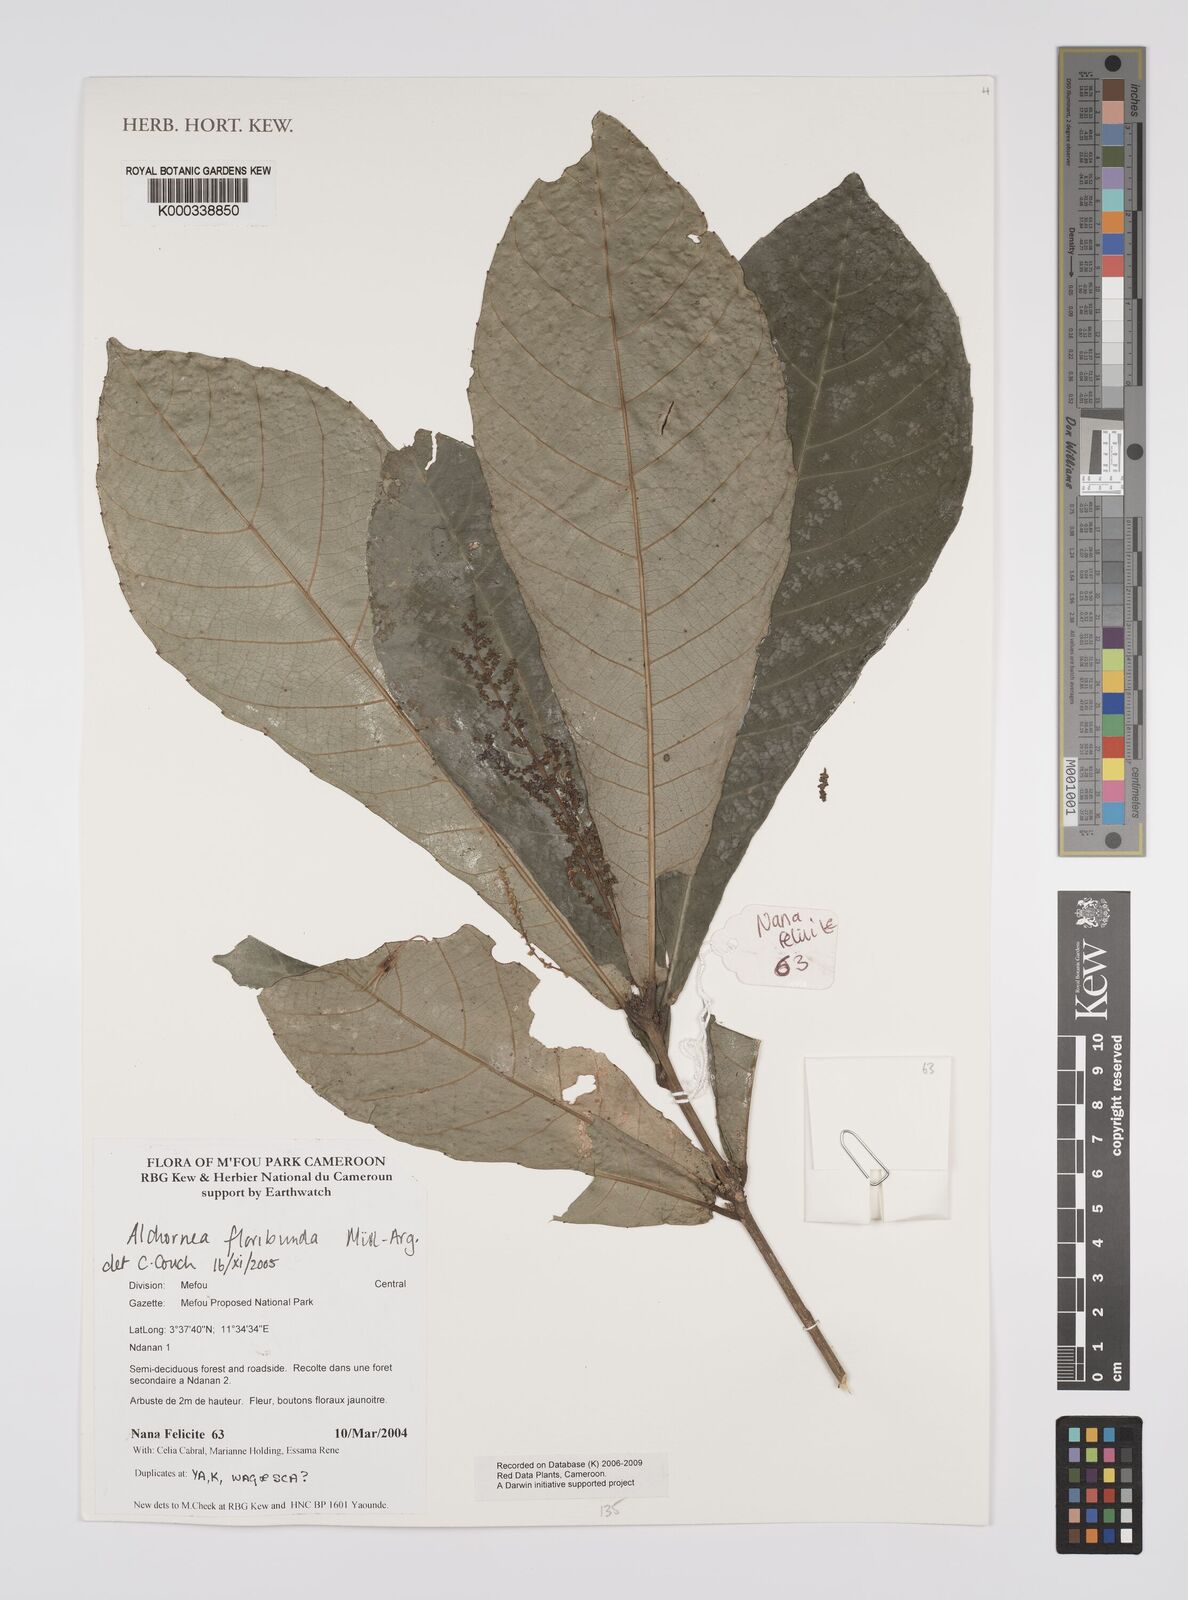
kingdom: Plantae
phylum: Tracheophyta
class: Magnoliopsida
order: Malpighiales
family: Euphorbiaceae
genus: Alchornea
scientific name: Alchornea
